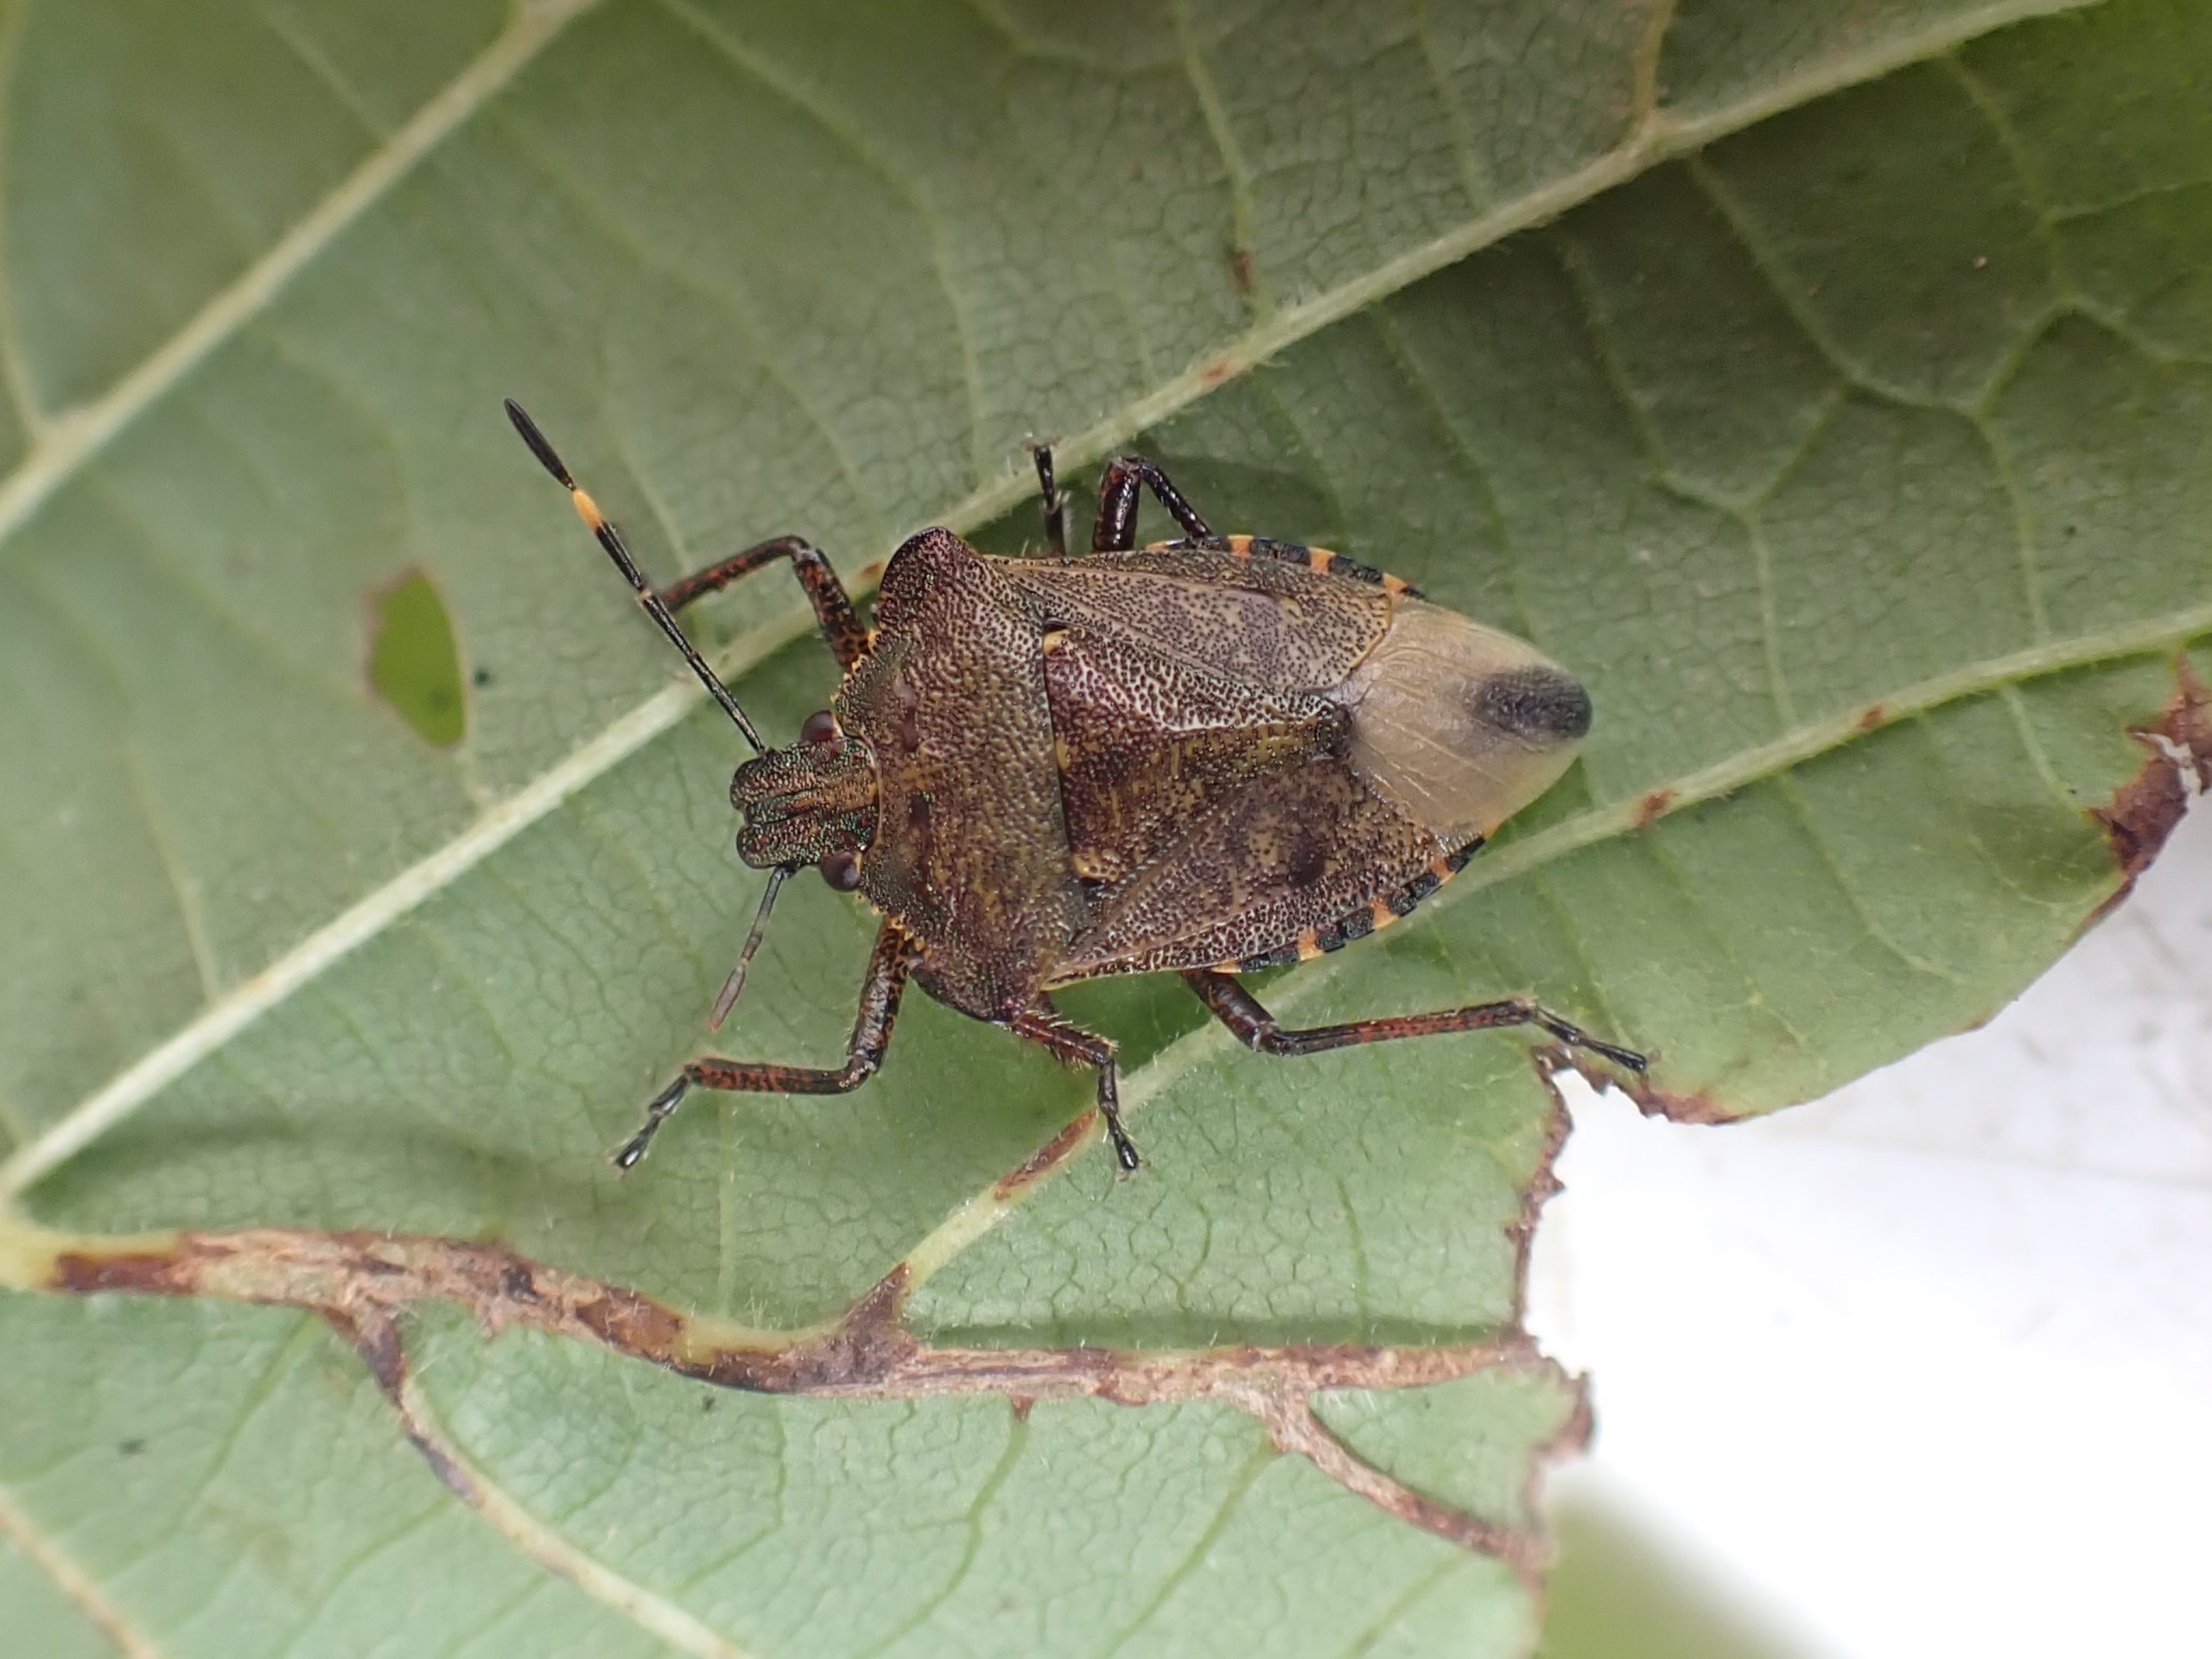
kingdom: Animalia
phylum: Arthropoda
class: Insecta
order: Hemiptera
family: Pentatomidae
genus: Troilus
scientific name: Troilus luridus
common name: Skovbredtæge
